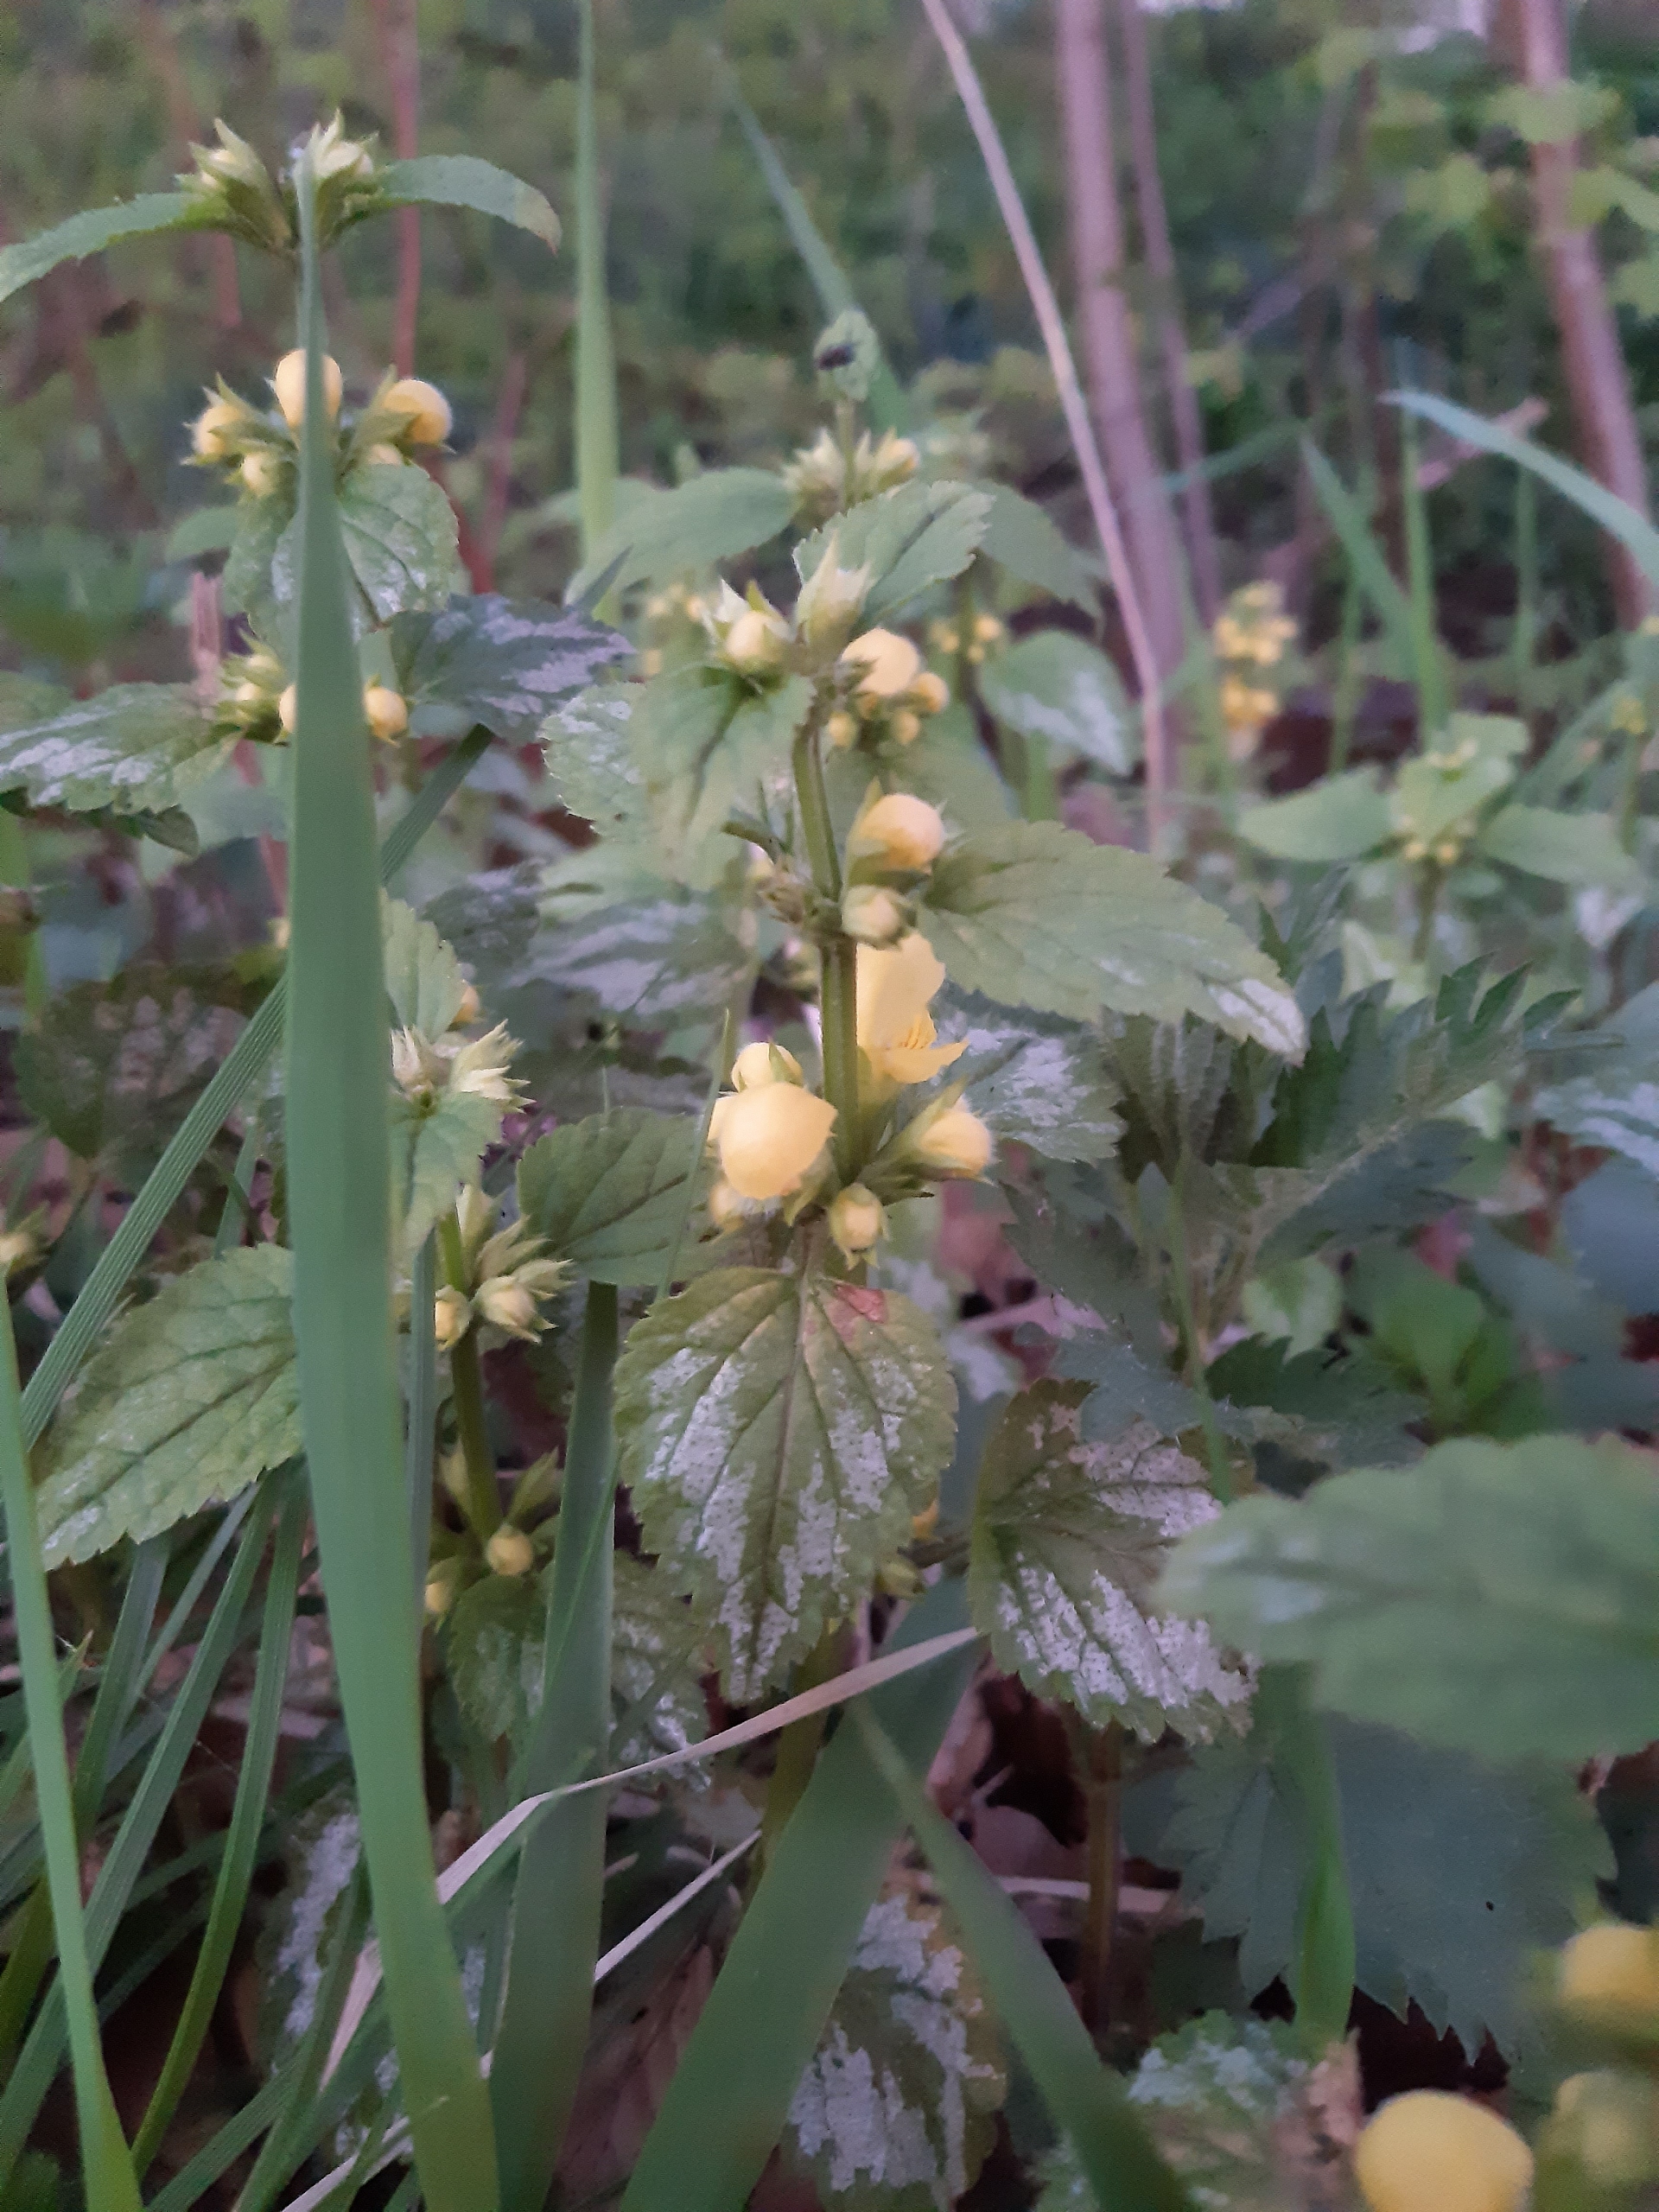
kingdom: Plantae
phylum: Tracheophyta
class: Magnoliopsida
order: Lamiales
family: Lamiaceae
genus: Lamium
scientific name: Lamium galeobdolon
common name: Guldnælde
